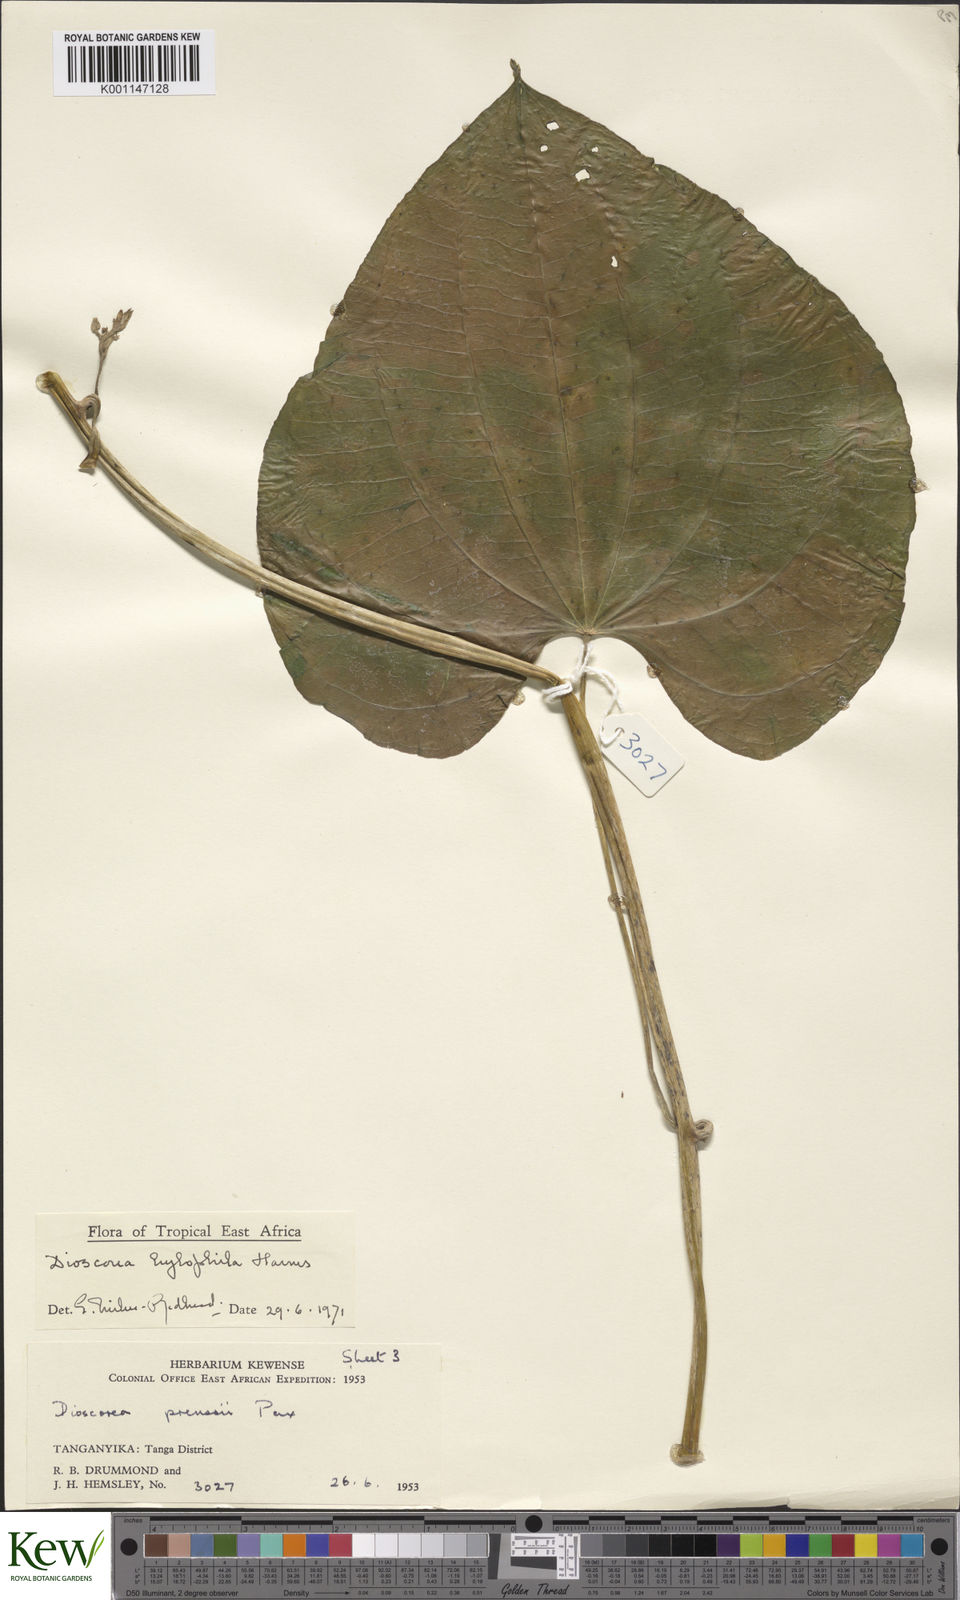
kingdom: Plantae
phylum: Tracheophyta
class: Liliopsida
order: Dioscoreales
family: Dioscoreaceae
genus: Dioscorea
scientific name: Dioscorea
